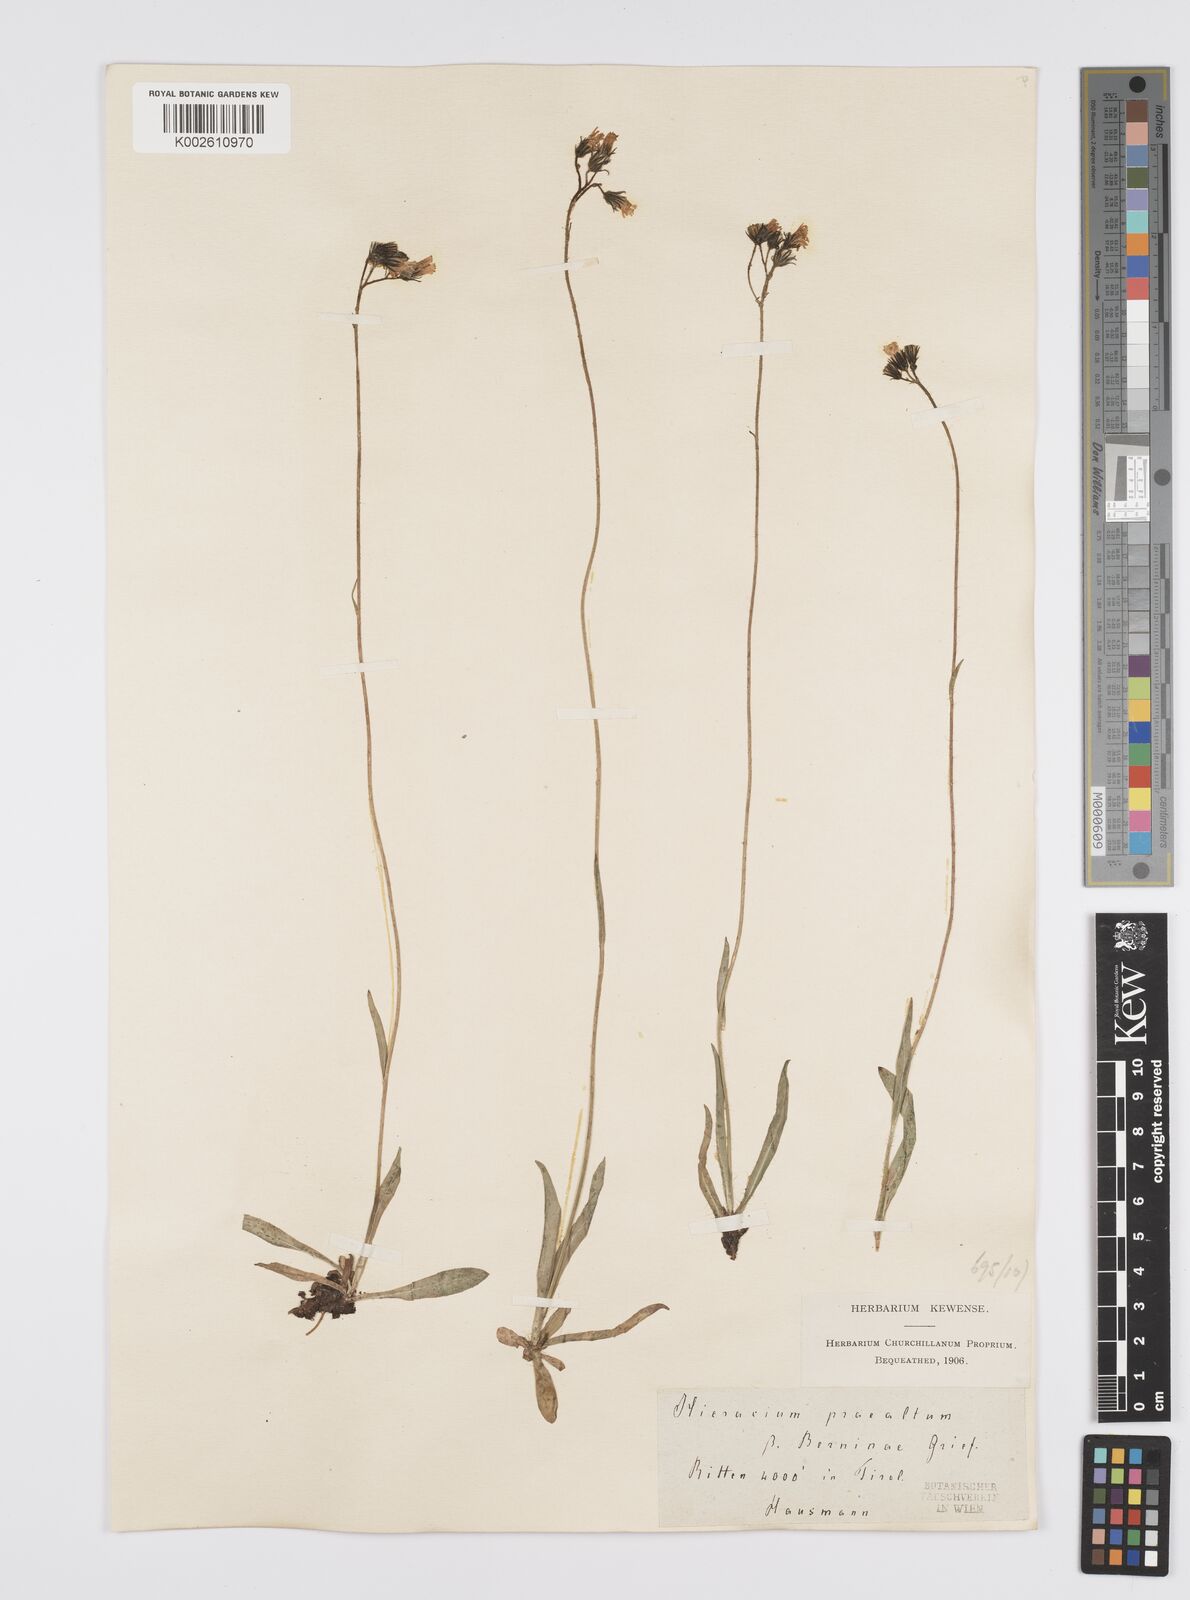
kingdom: Plantae
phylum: Tracheophyta
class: Magnoliopsida
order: Asterales
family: Asteraceae
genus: Pilosella
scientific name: Pilosella piloselloides
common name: Glaucous king-devil
